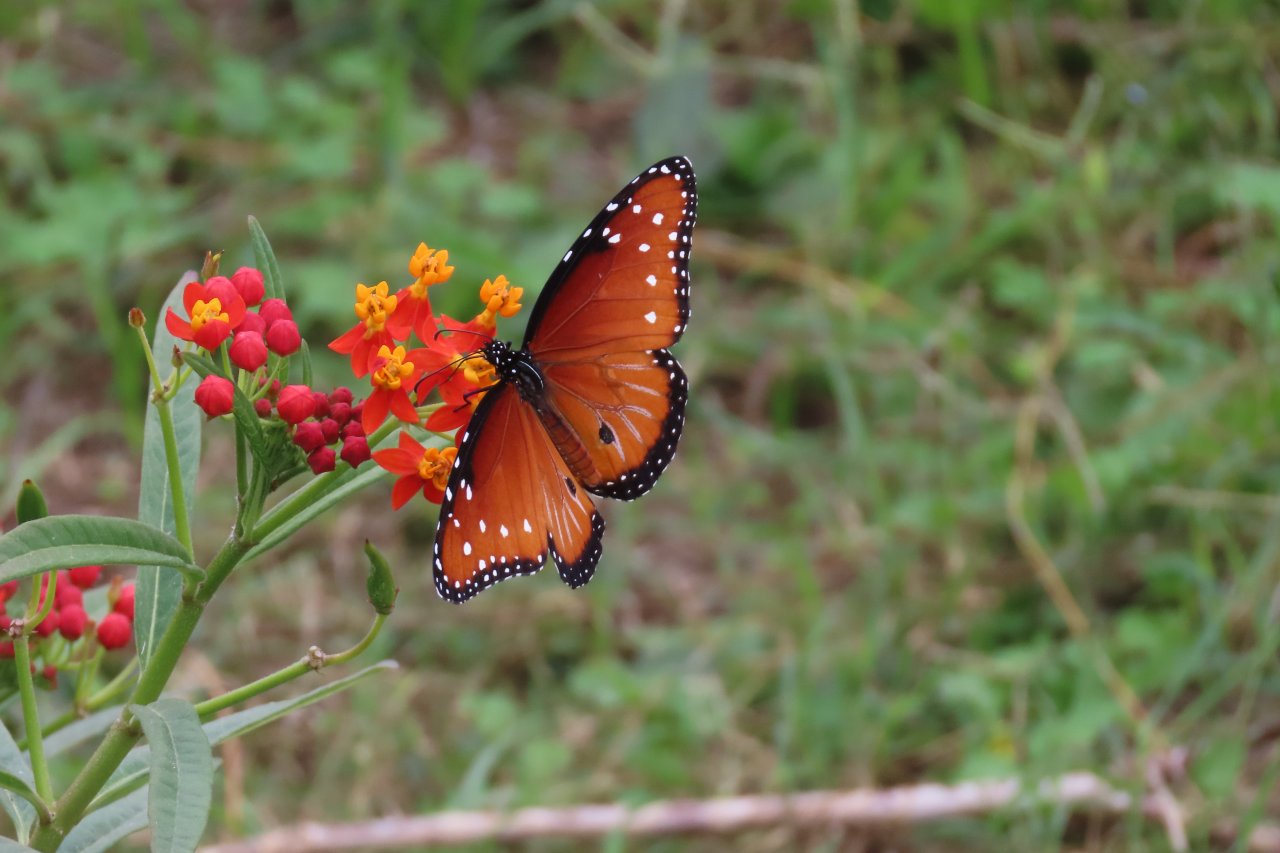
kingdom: Animalia
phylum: Arthropoda
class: Insecta
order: Lepidoptera
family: Nymphalidae
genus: Danaus
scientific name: Danaus gilippus
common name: Queen
